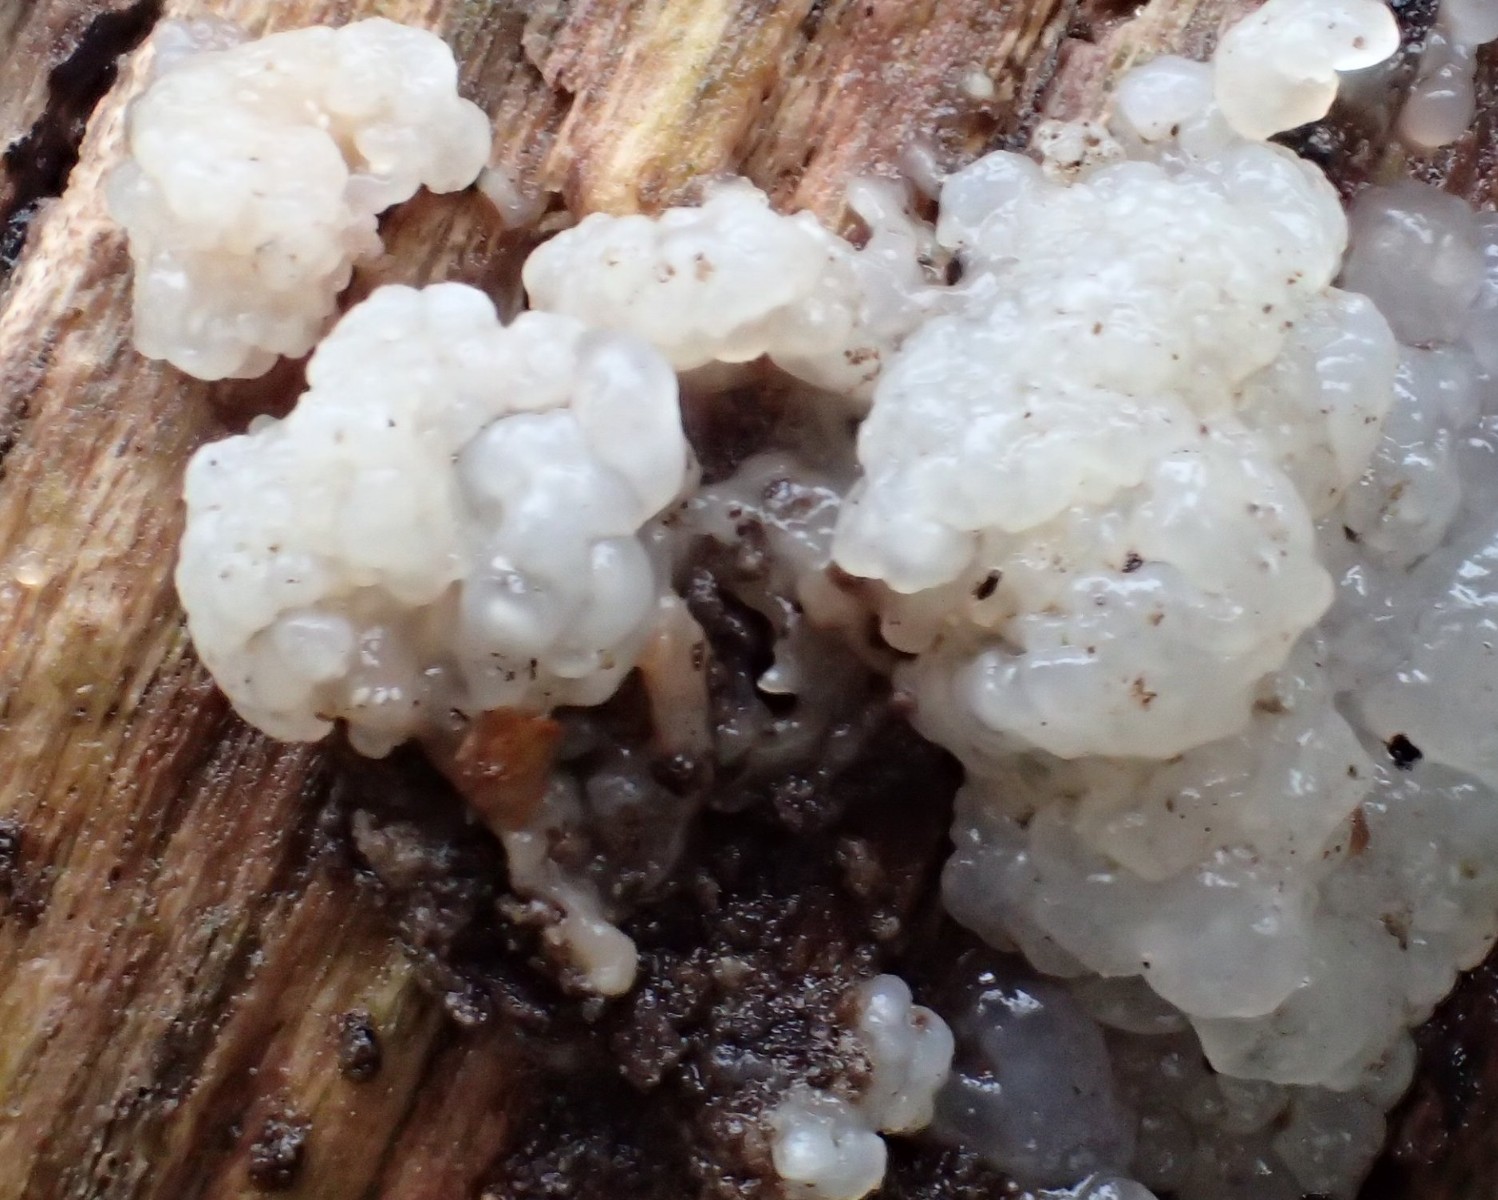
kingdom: Fungi
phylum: Basidiomycota
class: Agaricomycetes
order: Auriculariales
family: Hyaloriaceae
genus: Myxarium
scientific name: Myxarium nucleatum
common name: klar bævretop
